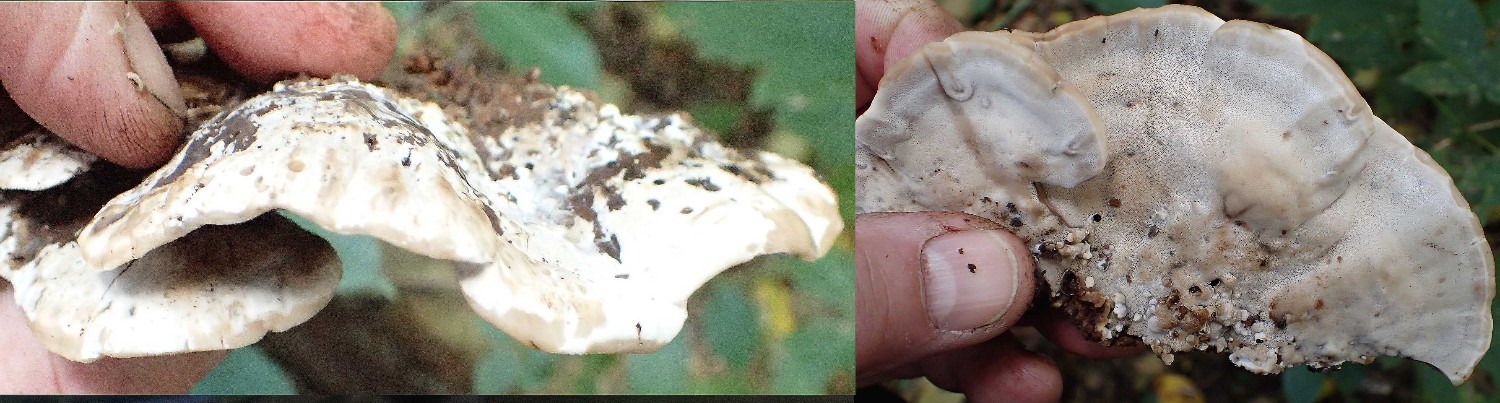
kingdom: Fungi
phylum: Basidiomycota
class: Agaricomycetes
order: Polyporales
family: Phanerochaetaceae
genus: Bjerkandera
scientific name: Bjerkandera fumosa
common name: grågul sodporesvamp
